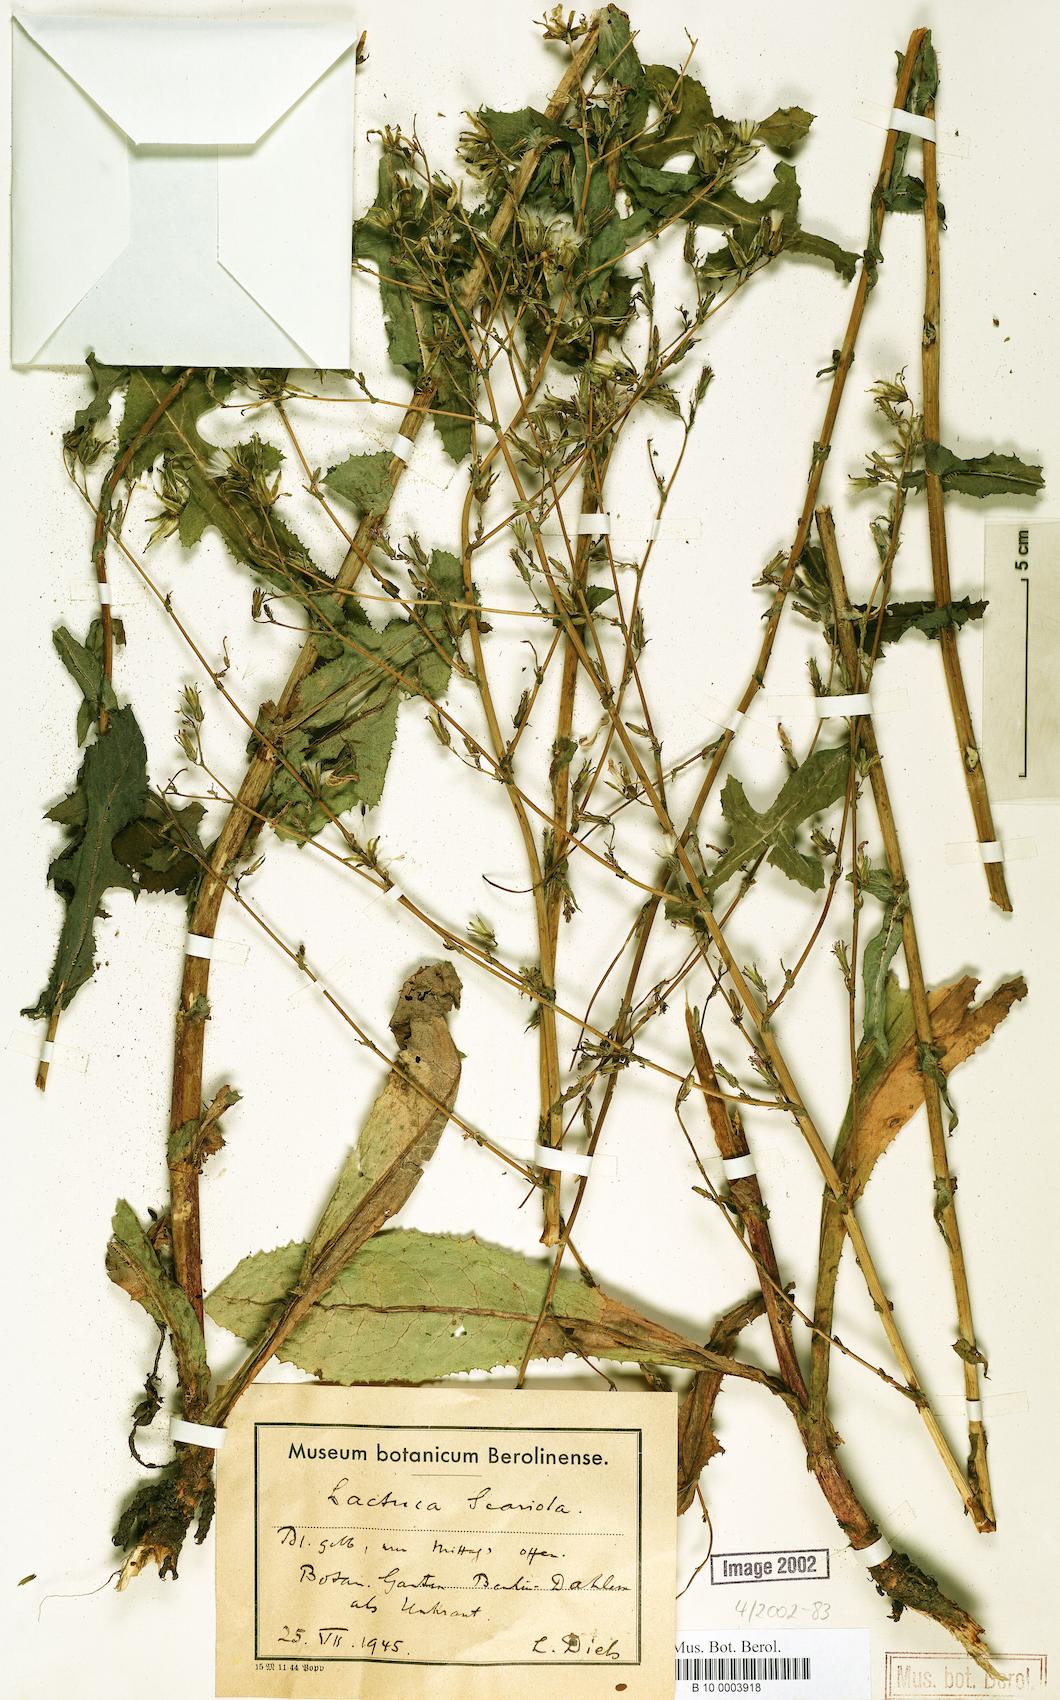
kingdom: Plantae
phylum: Tracheophyta
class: Magnoliopsida
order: Asterales
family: Asteraceae
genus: Lactuca
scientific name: Lactuca serriola
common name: Prickly lettuce
